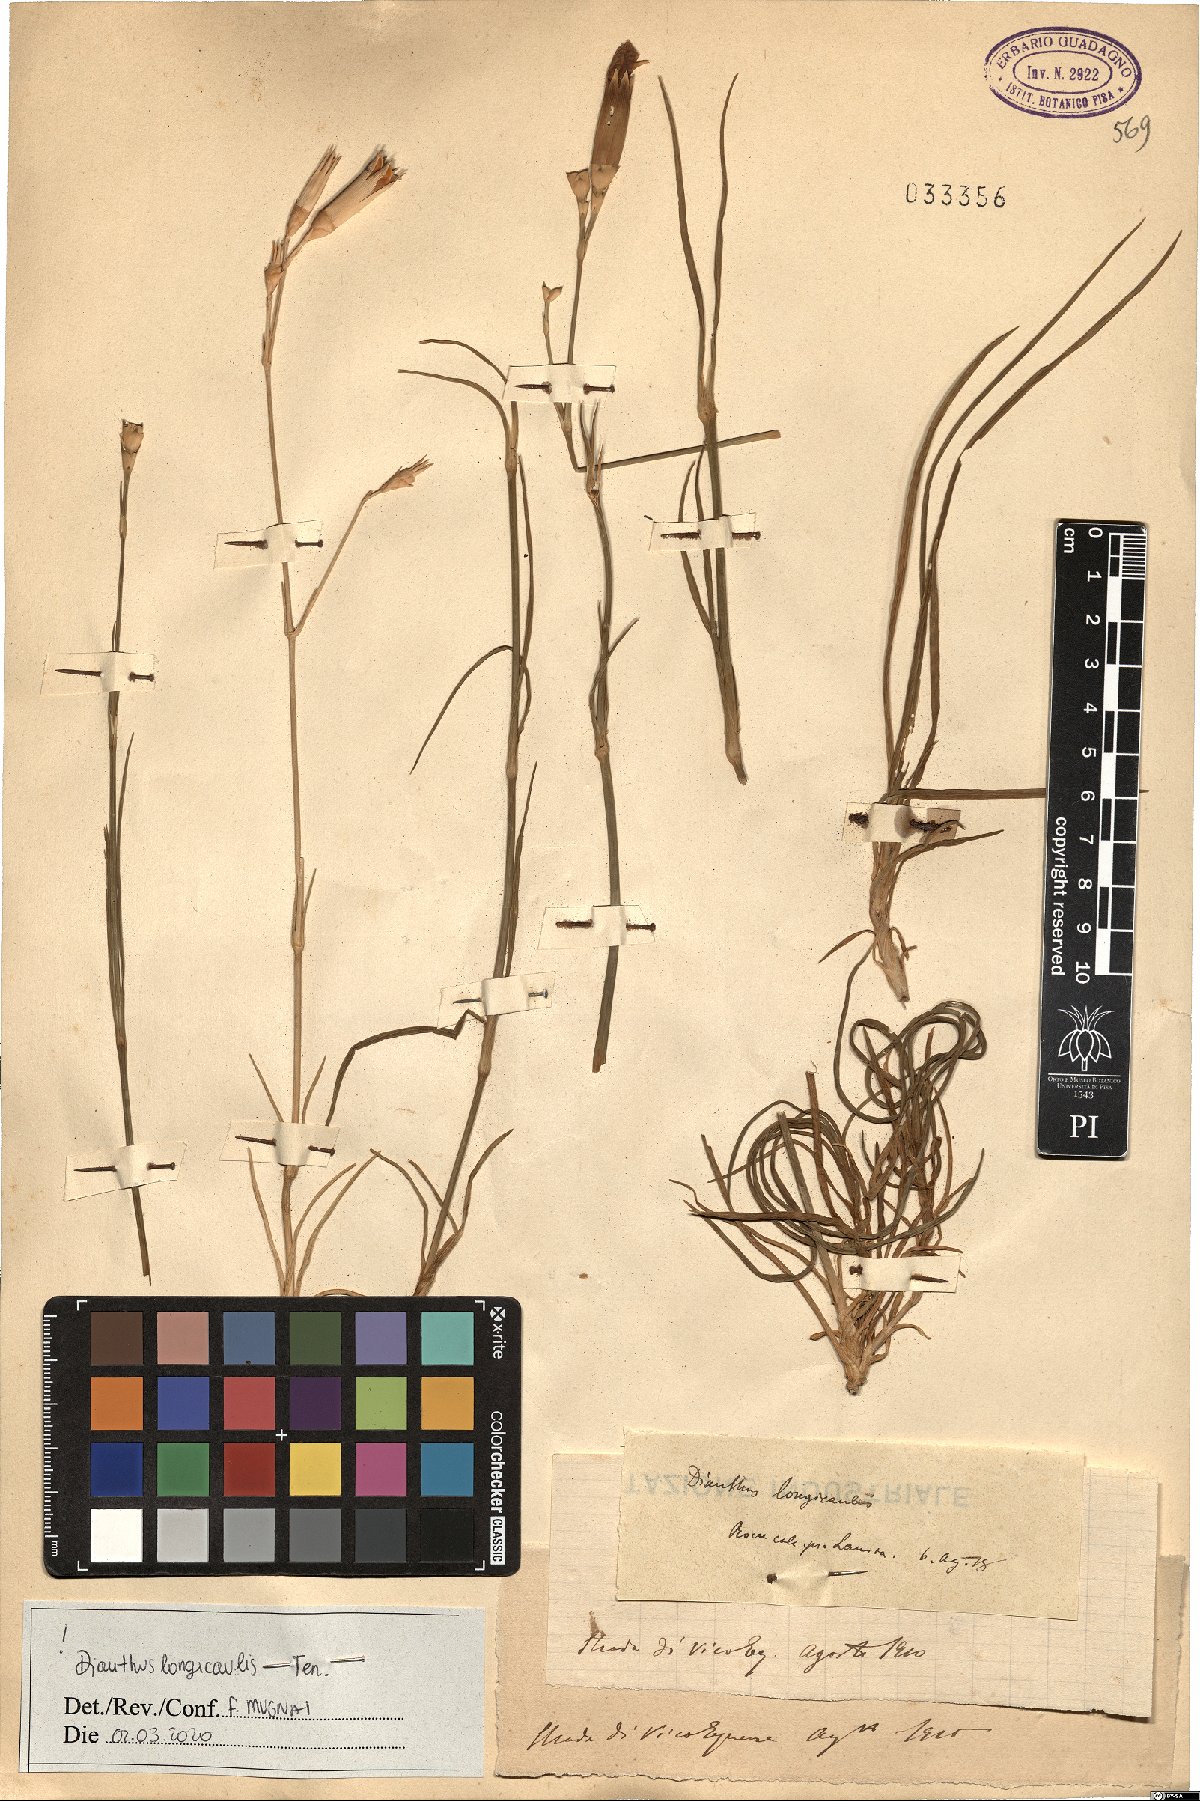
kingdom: Plantae
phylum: Tracheophyta
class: Magnoliopsida
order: Caryophyllales
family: Caryophyllaceae
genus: Dianthus
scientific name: Dianthus virgineus
